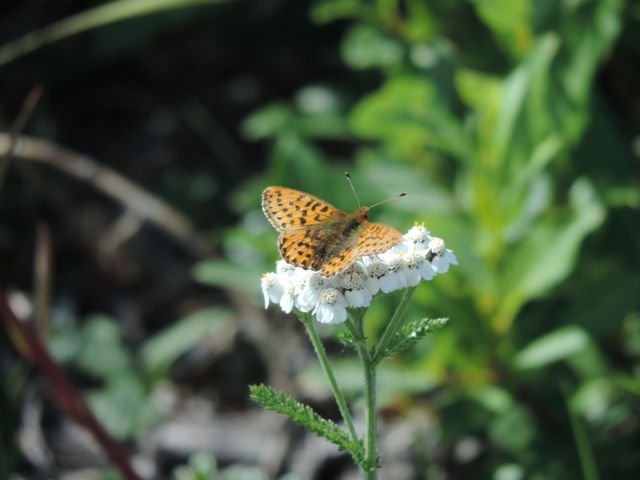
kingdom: Animalia
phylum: Arthropoda
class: Insecta
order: Lepidoptera
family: Nymphalidae
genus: Boloria
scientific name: Boloria chariclea
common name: Arctic Fritillary
